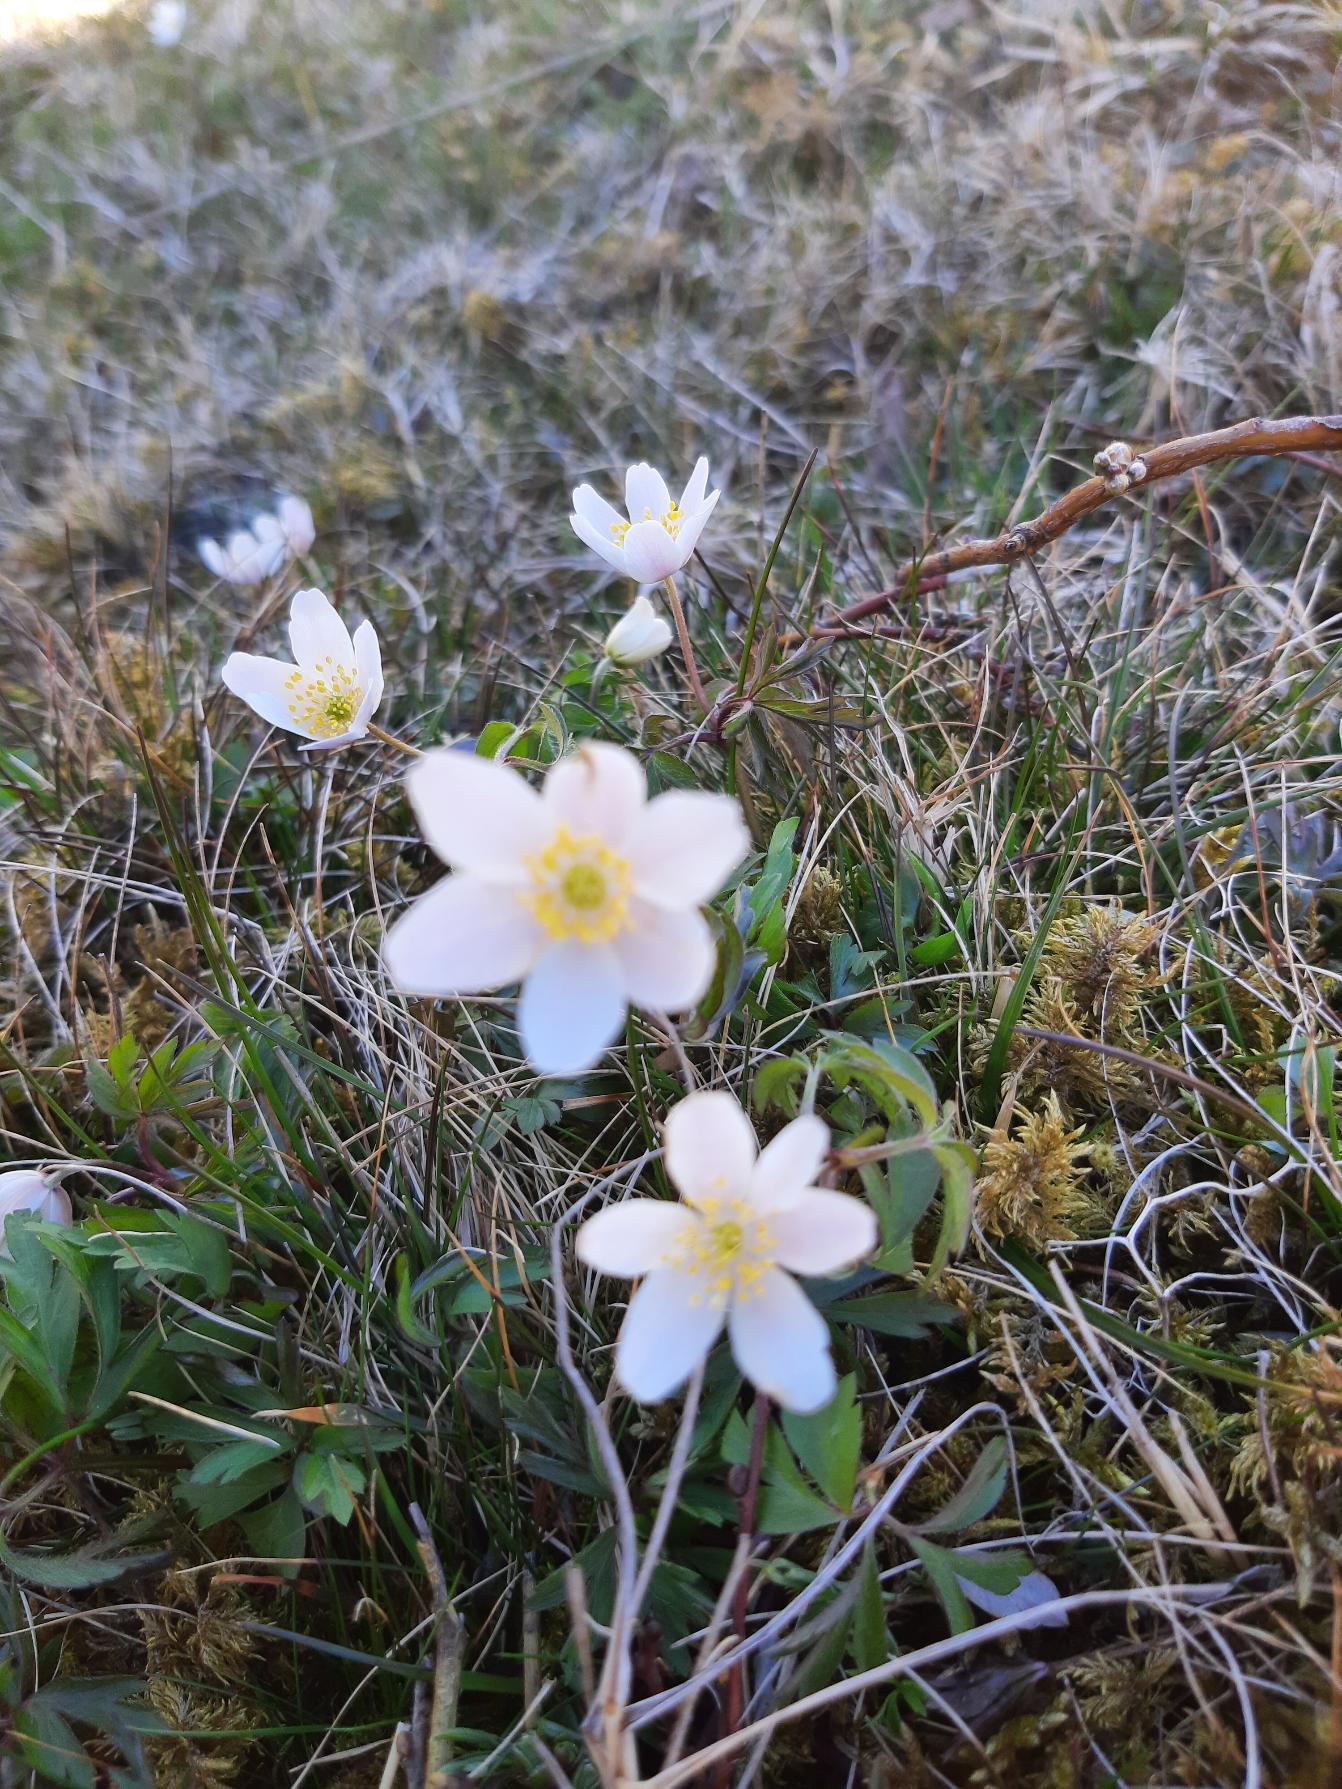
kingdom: Plantae
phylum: Tracheophyta
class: Magnoliopsida
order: Ranunculales
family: Ranunculaceae
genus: Anemone
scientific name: Anemone nemorosa
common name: Hvid anemone
